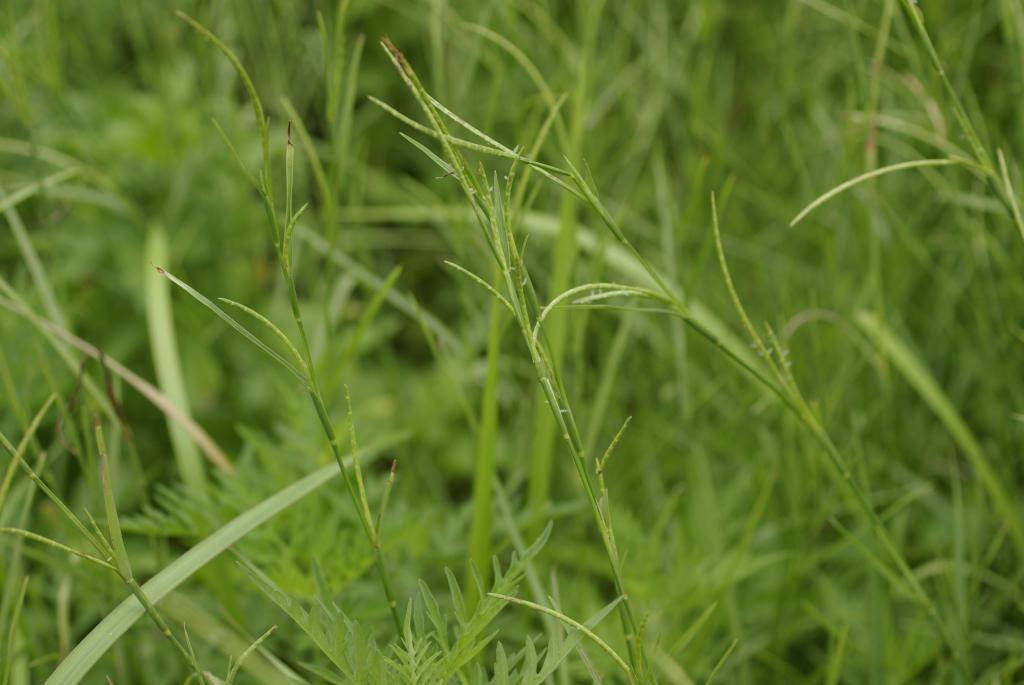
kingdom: Plantae
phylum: Tracheophyta
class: Liliopsida
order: Poales
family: Poaceae
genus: Hemarthria
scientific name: Hemarthria compressa
